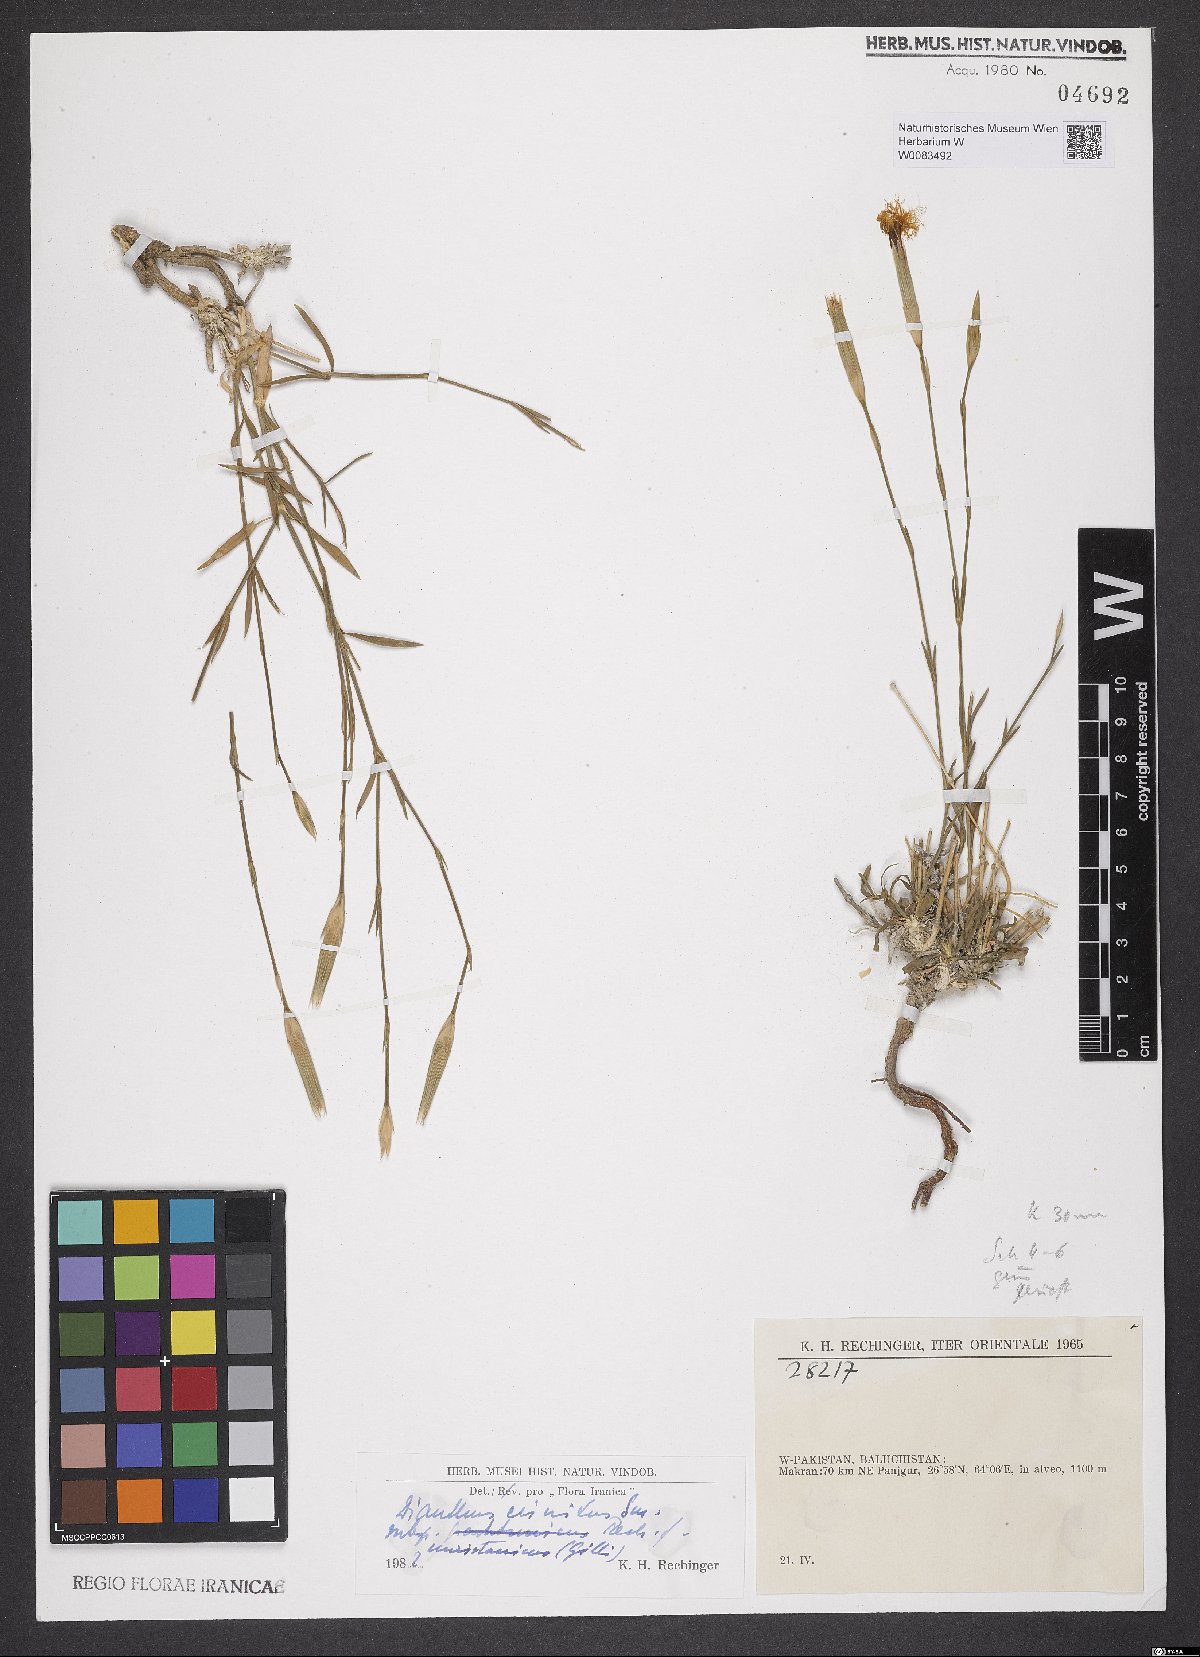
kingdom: Plantae
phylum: Tracheophyta
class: Magnoliopsida
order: Caryophyllales
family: Caryophyllaceae
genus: Dianthus
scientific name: Dianthus crinitus
